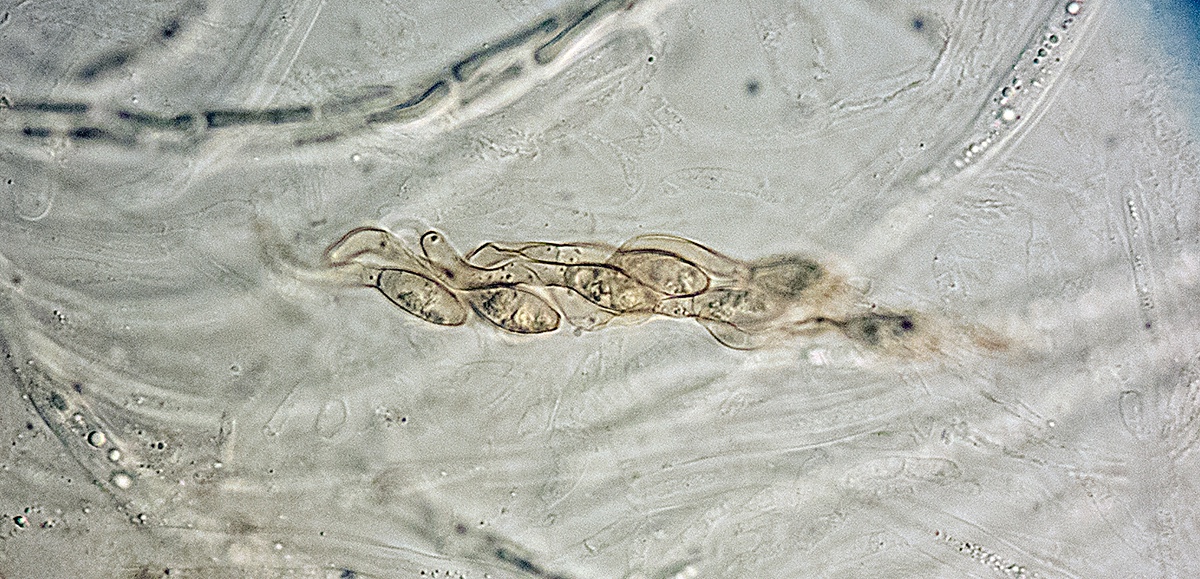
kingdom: Fungi
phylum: Ascomycota
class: Sordariomycetes
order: Sordariales
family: Neoschizotheciaceae
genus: Cercophora
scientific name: Cercophora septentrionalis
